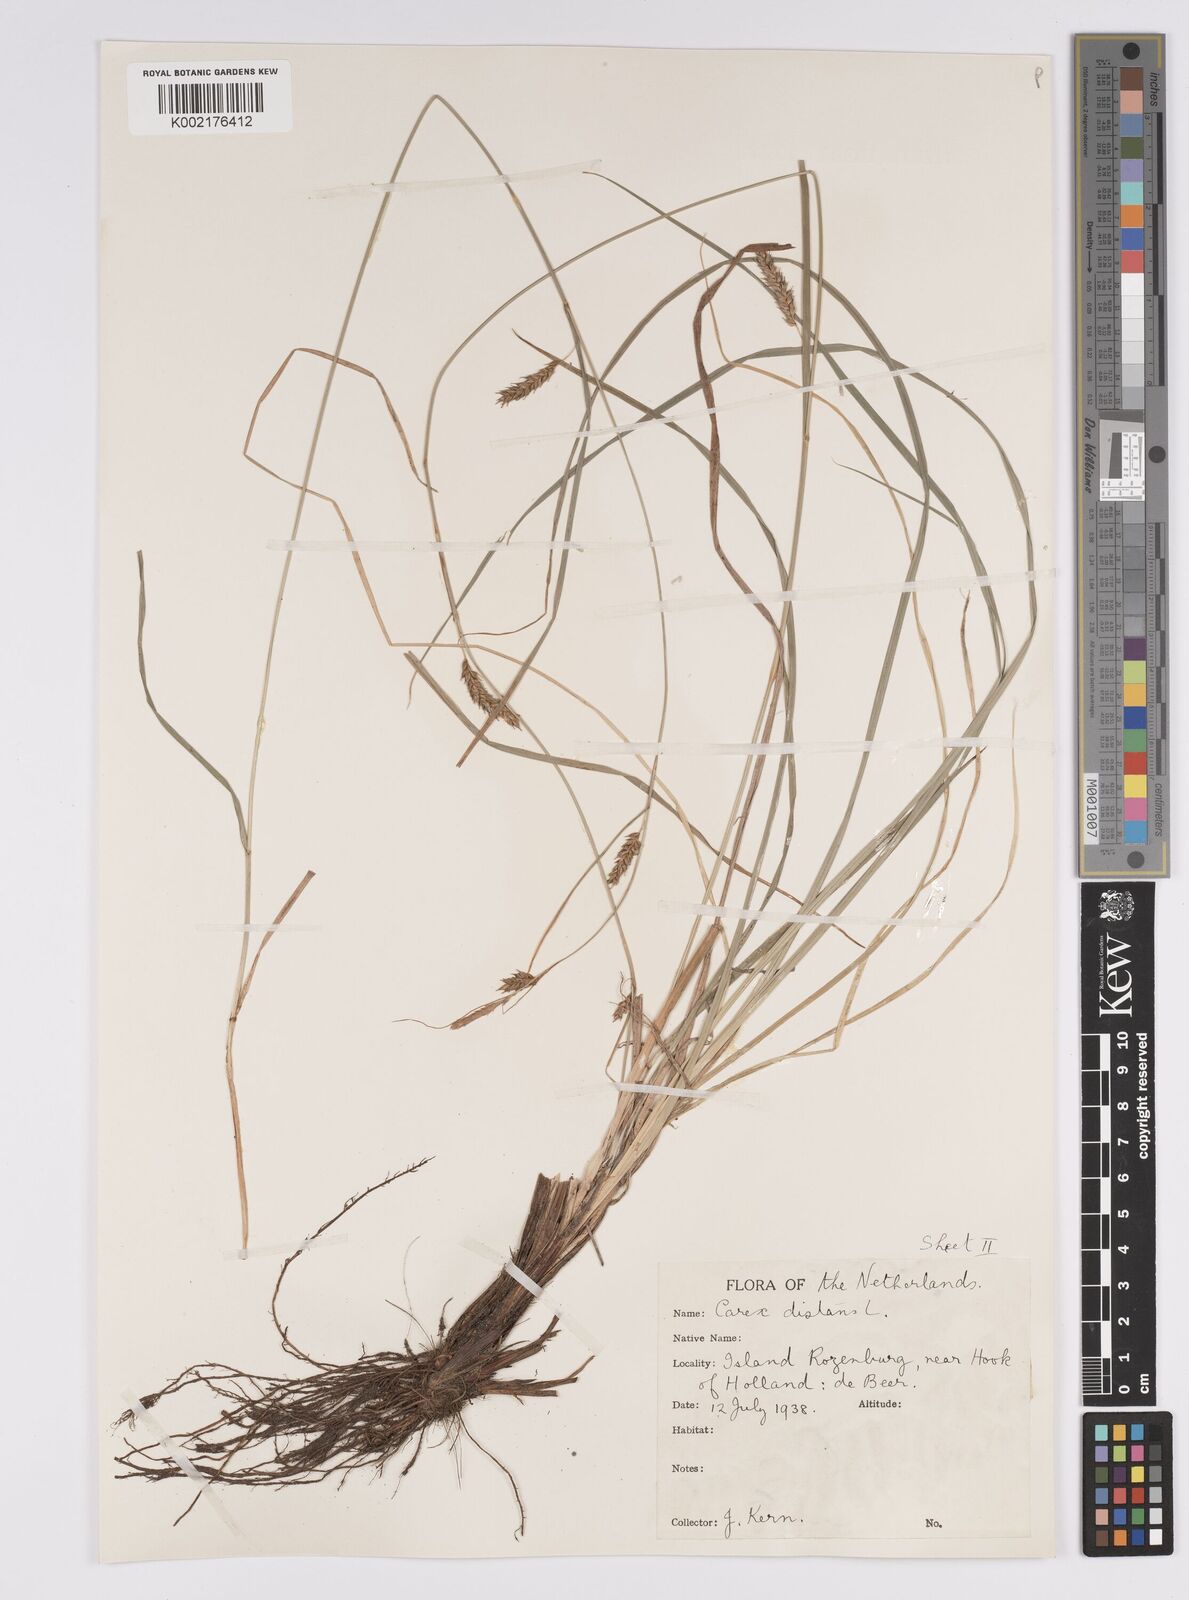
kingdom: Plantae
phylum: Tracheophyta
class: Liliopsida
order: Poales
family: Cyperaceae
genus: Carex
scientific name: Carex distans
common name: Distant sedge
